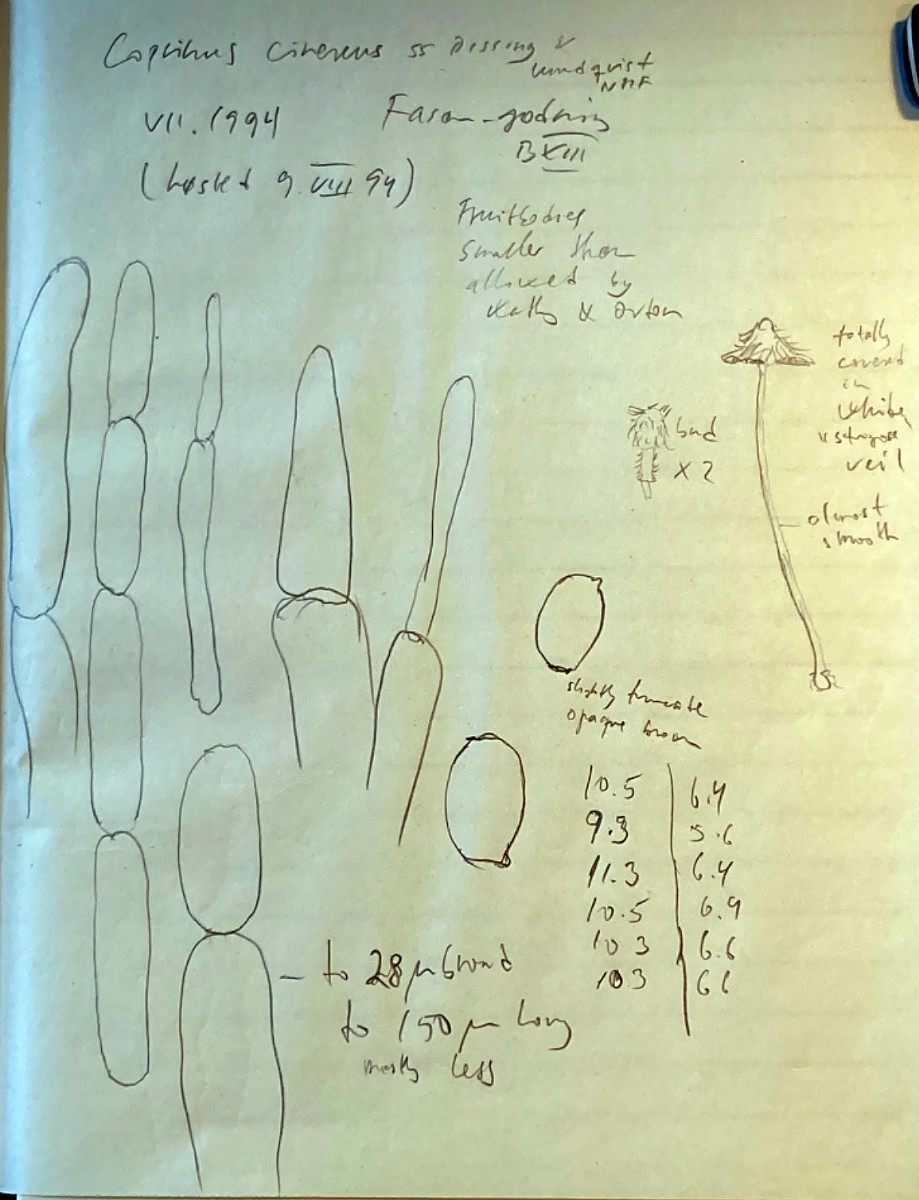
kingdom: Fungi
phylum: Basidiomycota
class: Agaricomycetes
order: Agaricales
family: Psathyrellaceae
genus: Coprinopsis
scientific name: Coprinopsis cinerea
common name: mødding-blækhat
